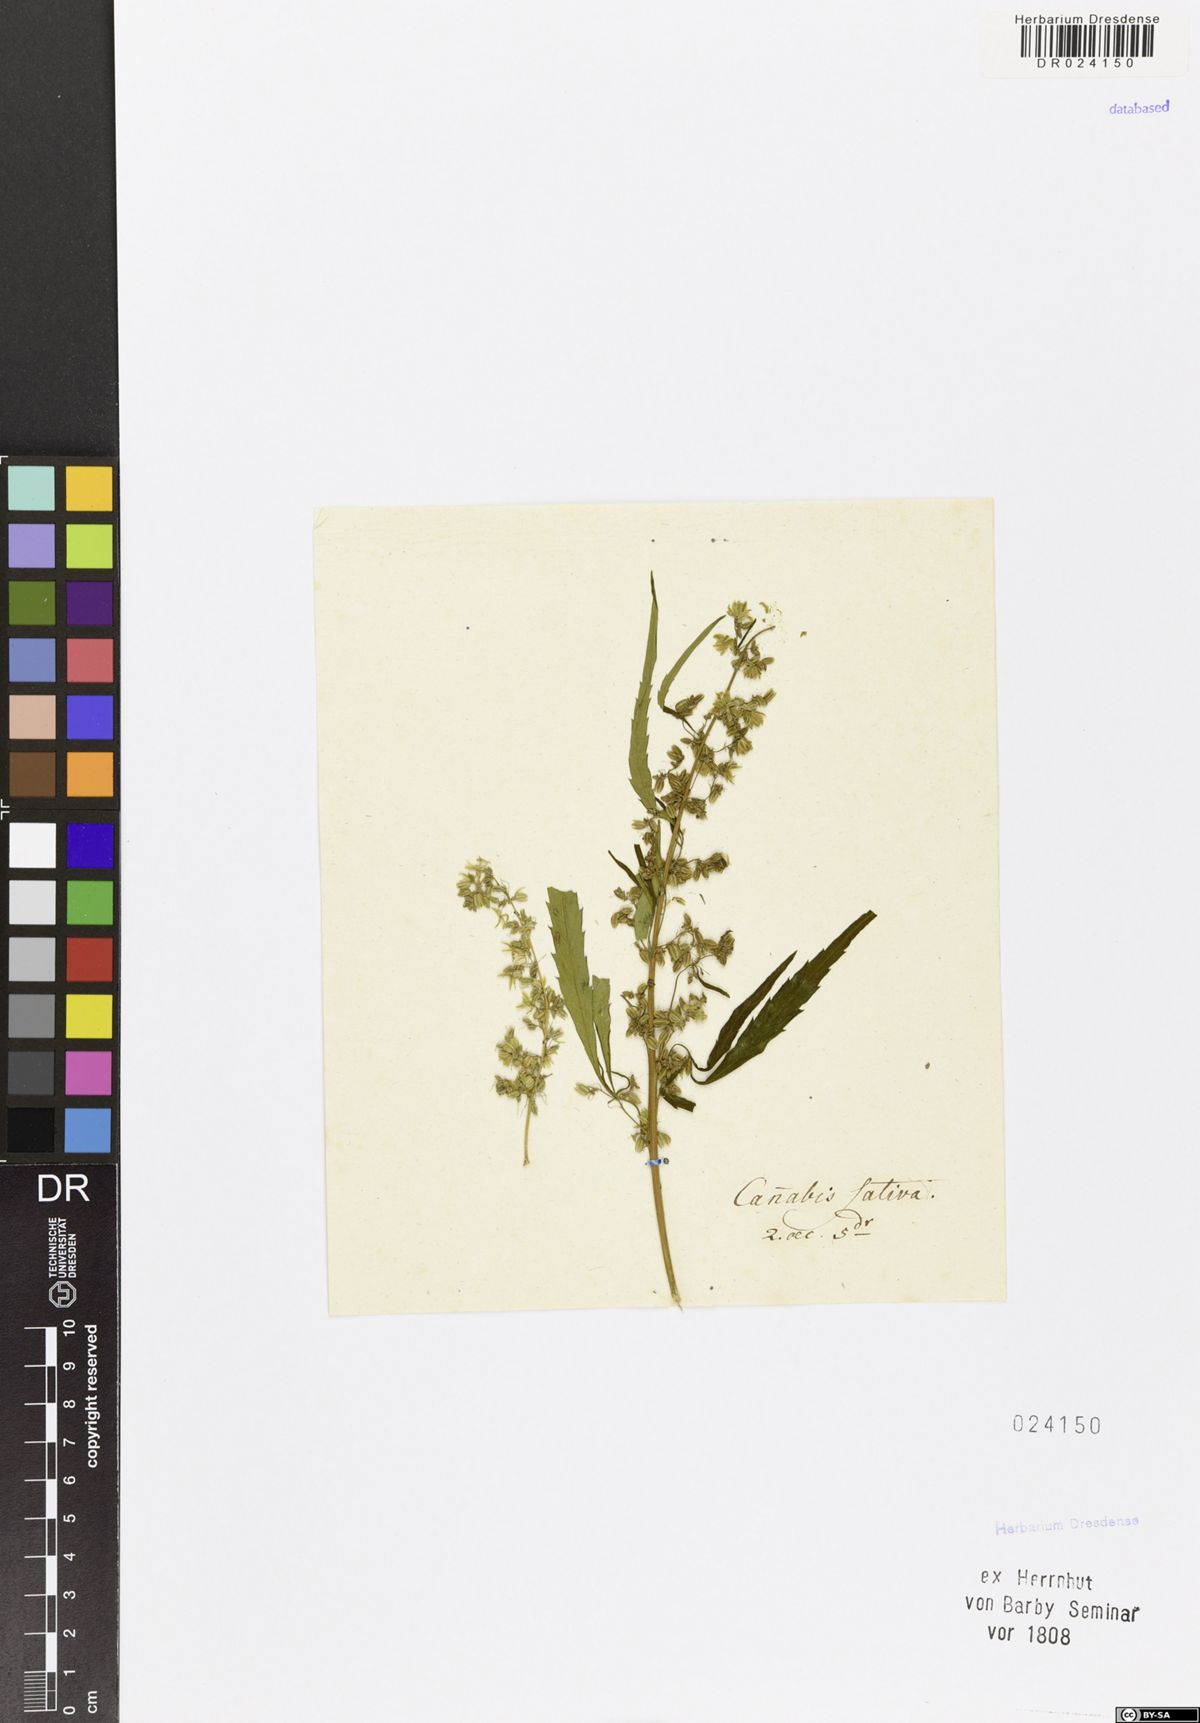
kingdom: Plantae
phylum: Tracheophyta
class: Magnoliopsida
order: Rosales
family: Cannabaceae
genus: Cannabis
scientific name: Cannabis sativa
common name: Hemp
